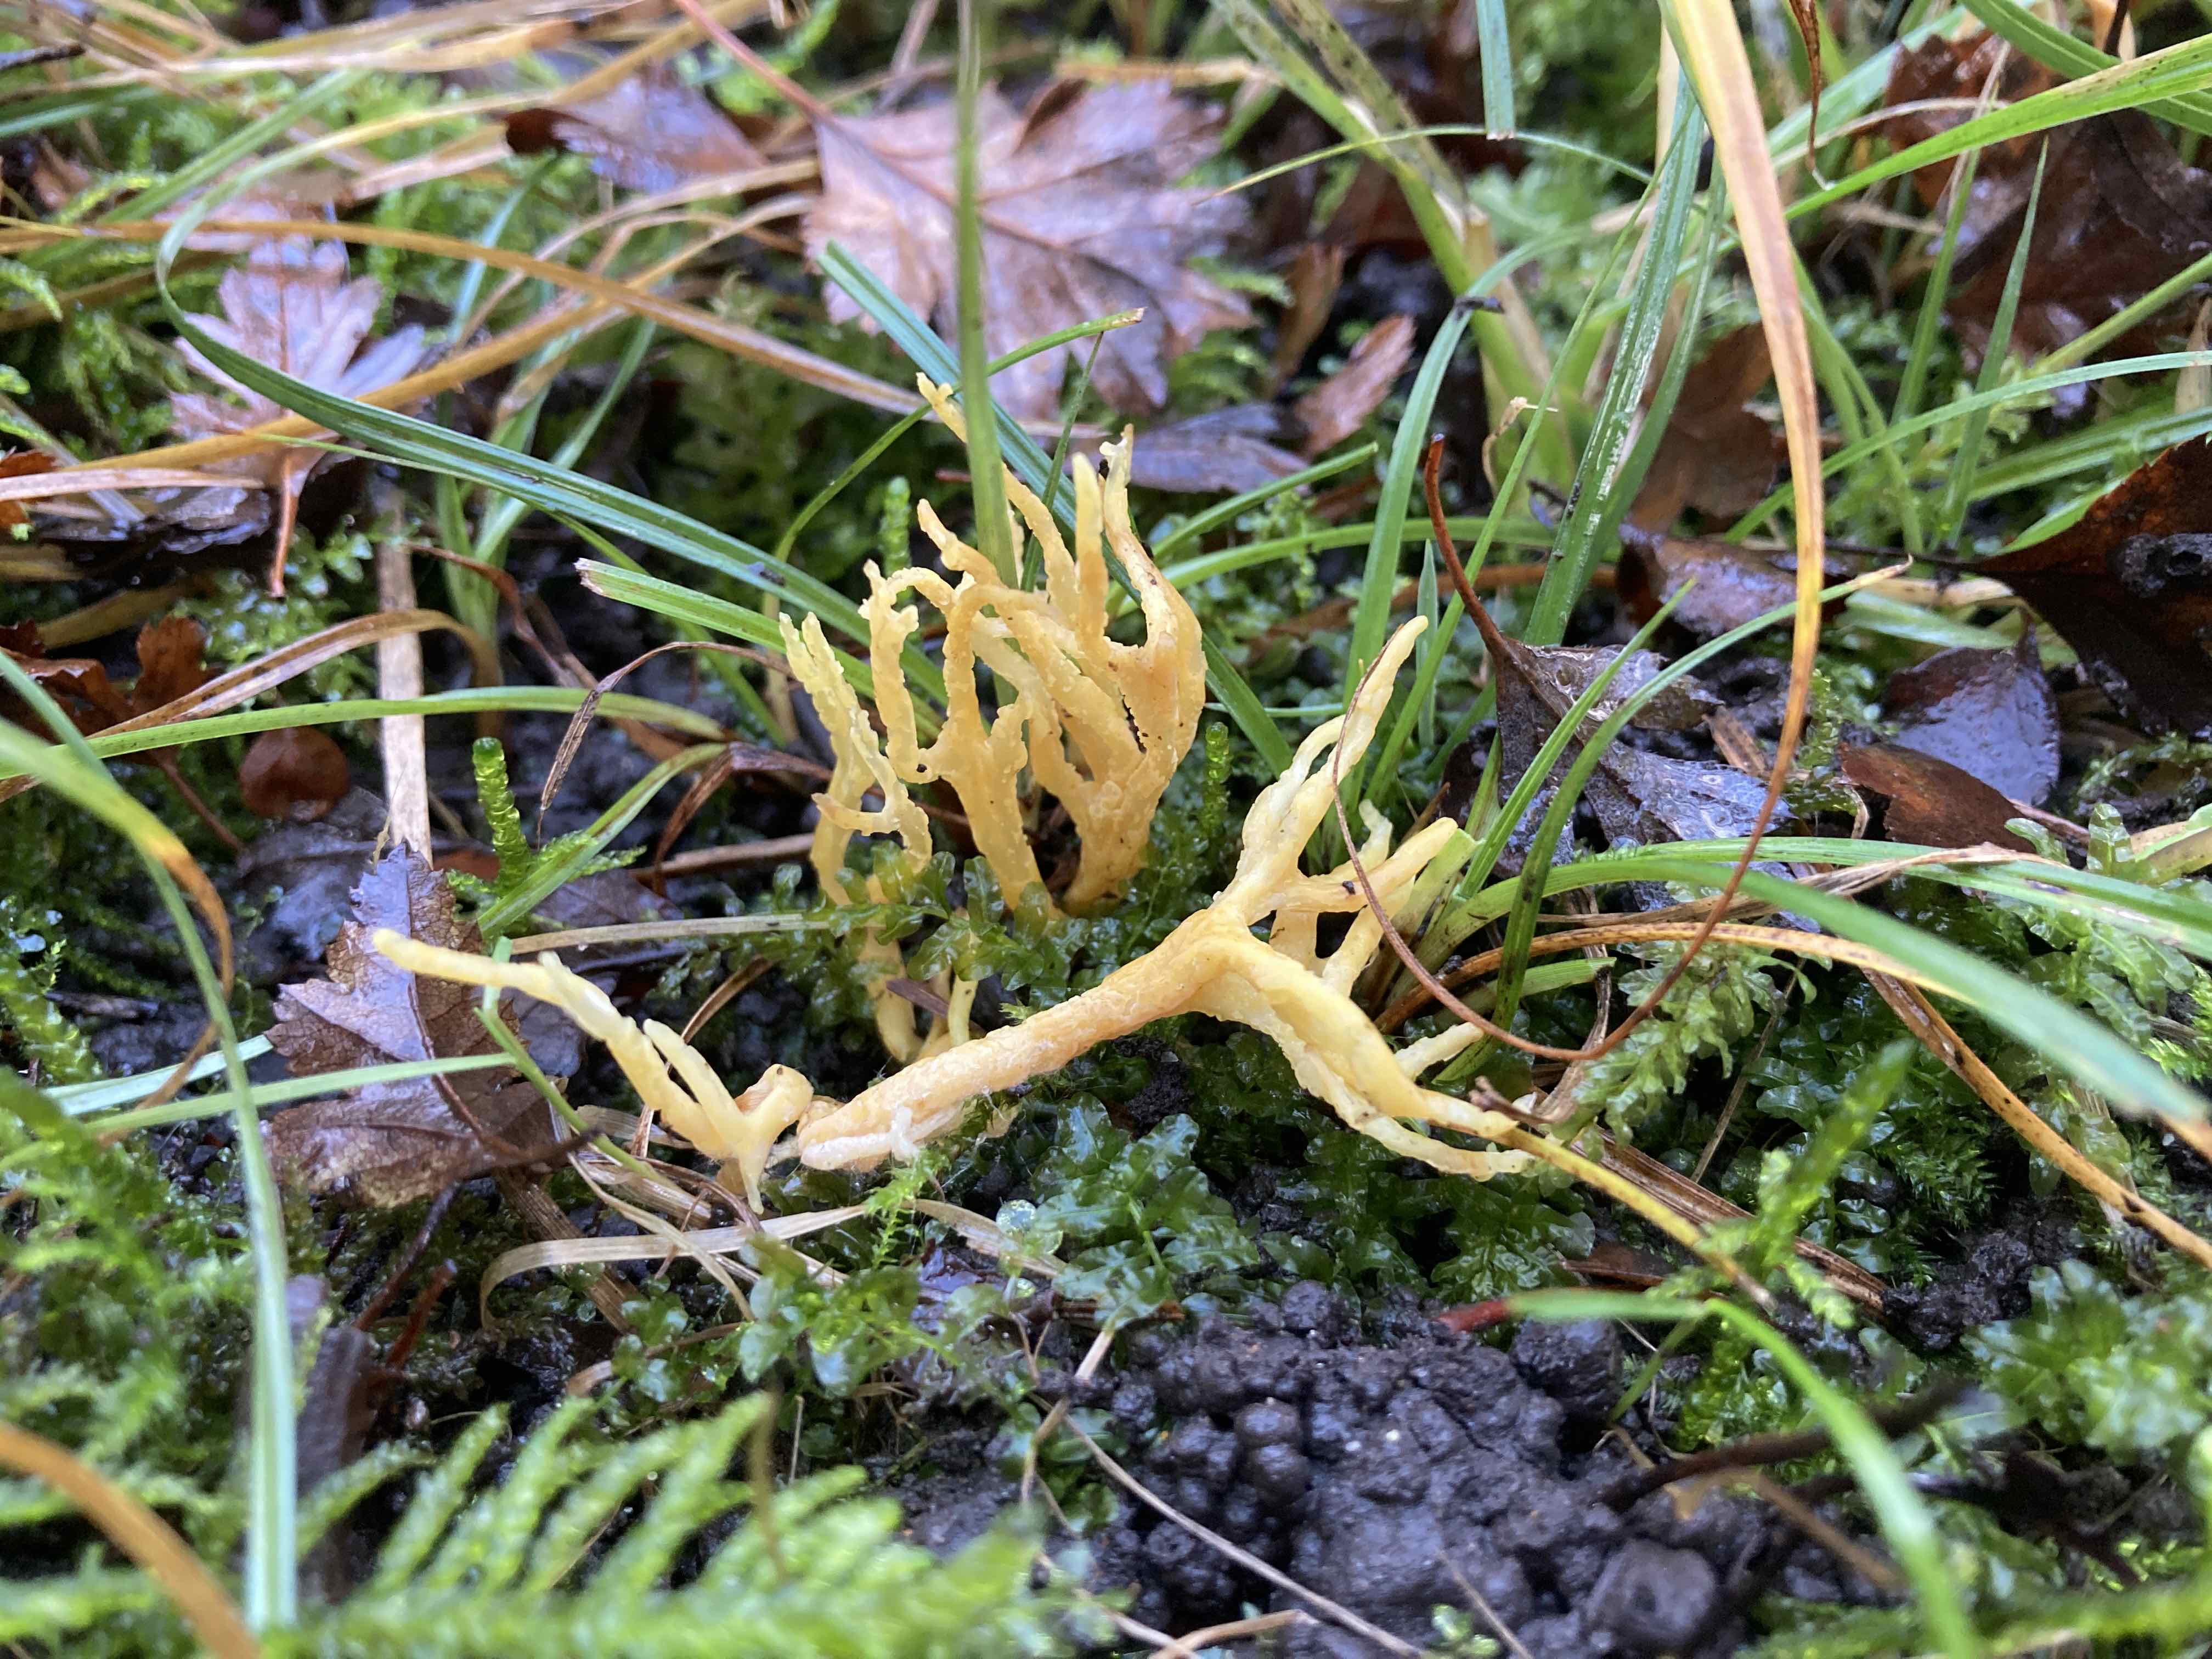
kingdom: Fungi
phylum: Basidiomycota
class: Agaricomycetes
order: Agaricales
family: Clavariaceae
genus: Clavulinopsis
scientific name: Clavulinopsis corniculata
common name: eng-køllesvamp
